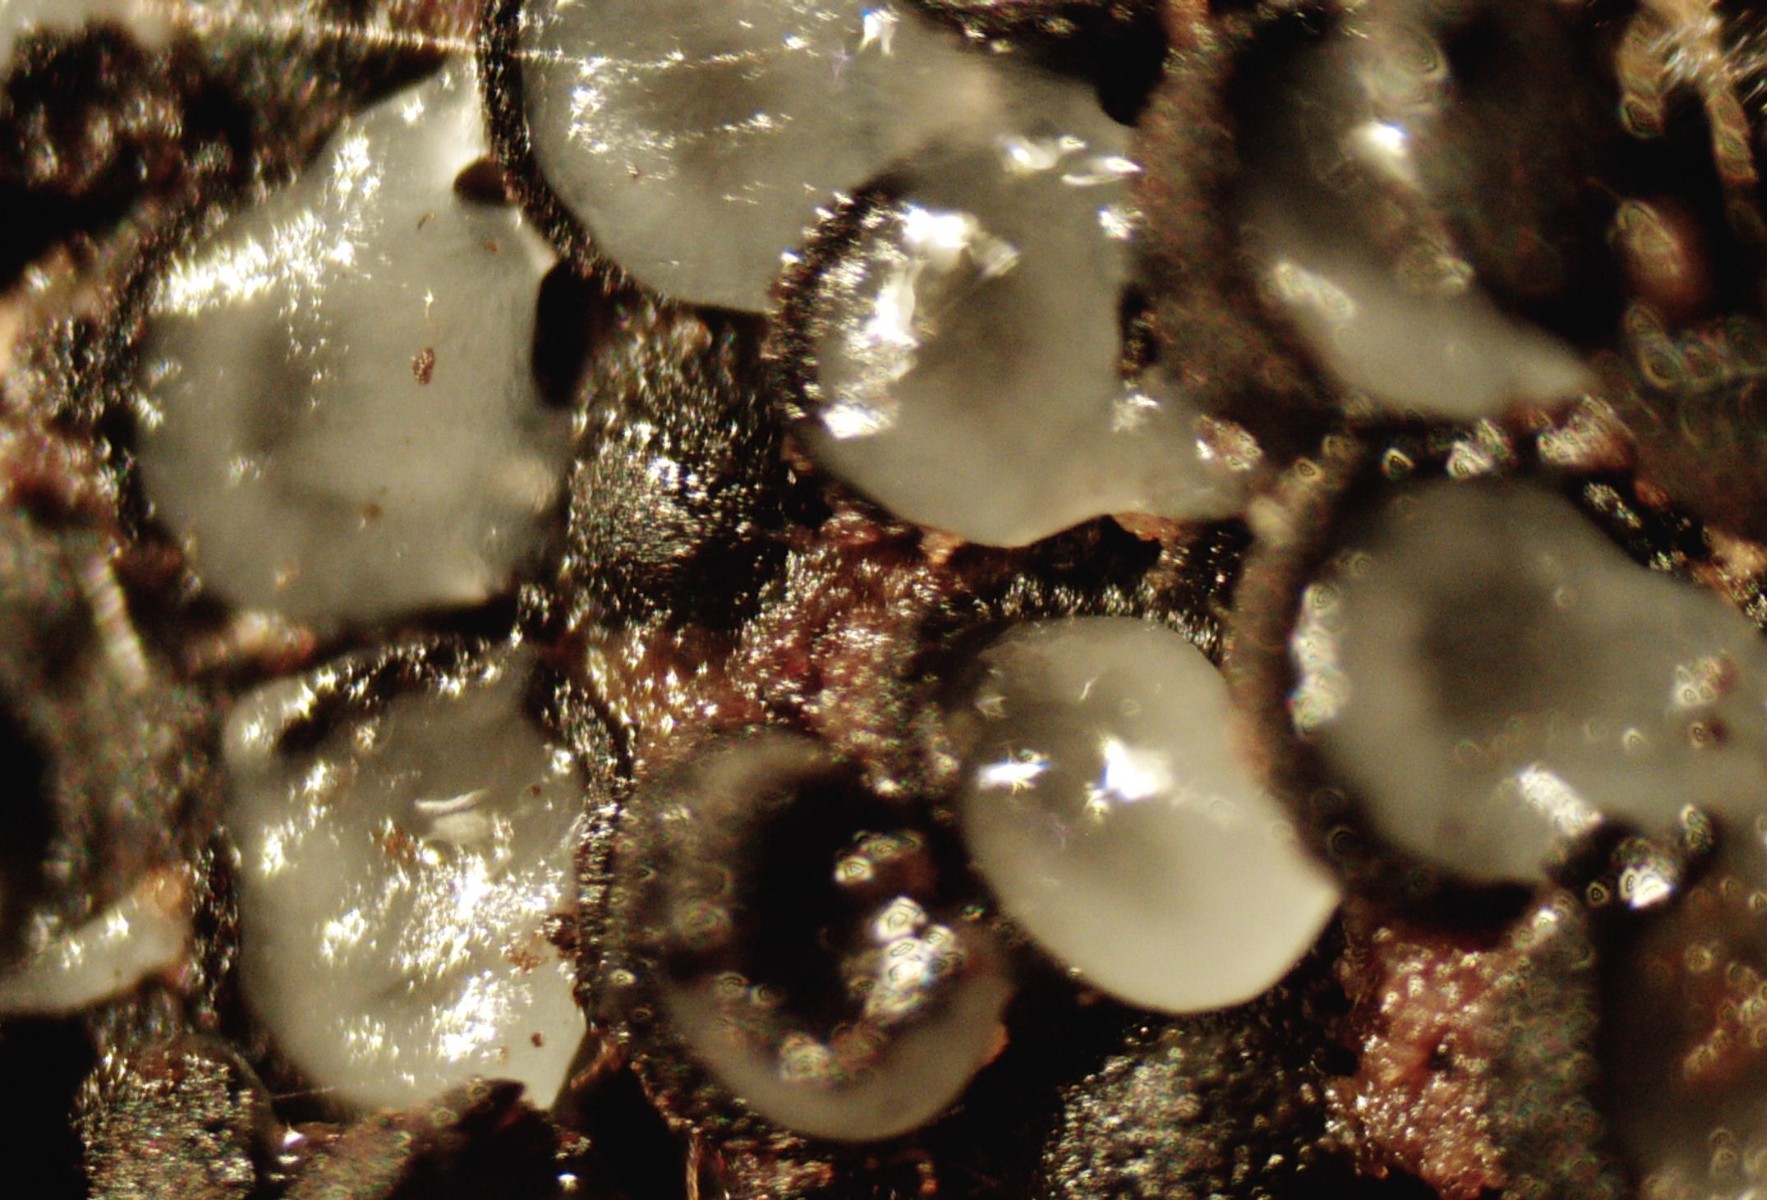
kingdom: Fungi
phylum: Ascomycota
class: Sordariomycetes
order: Sordariales
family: Helminthosphaeriaceae
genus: Ruzenia
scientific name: Ruzenia spermoides
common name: glat børstekerne
